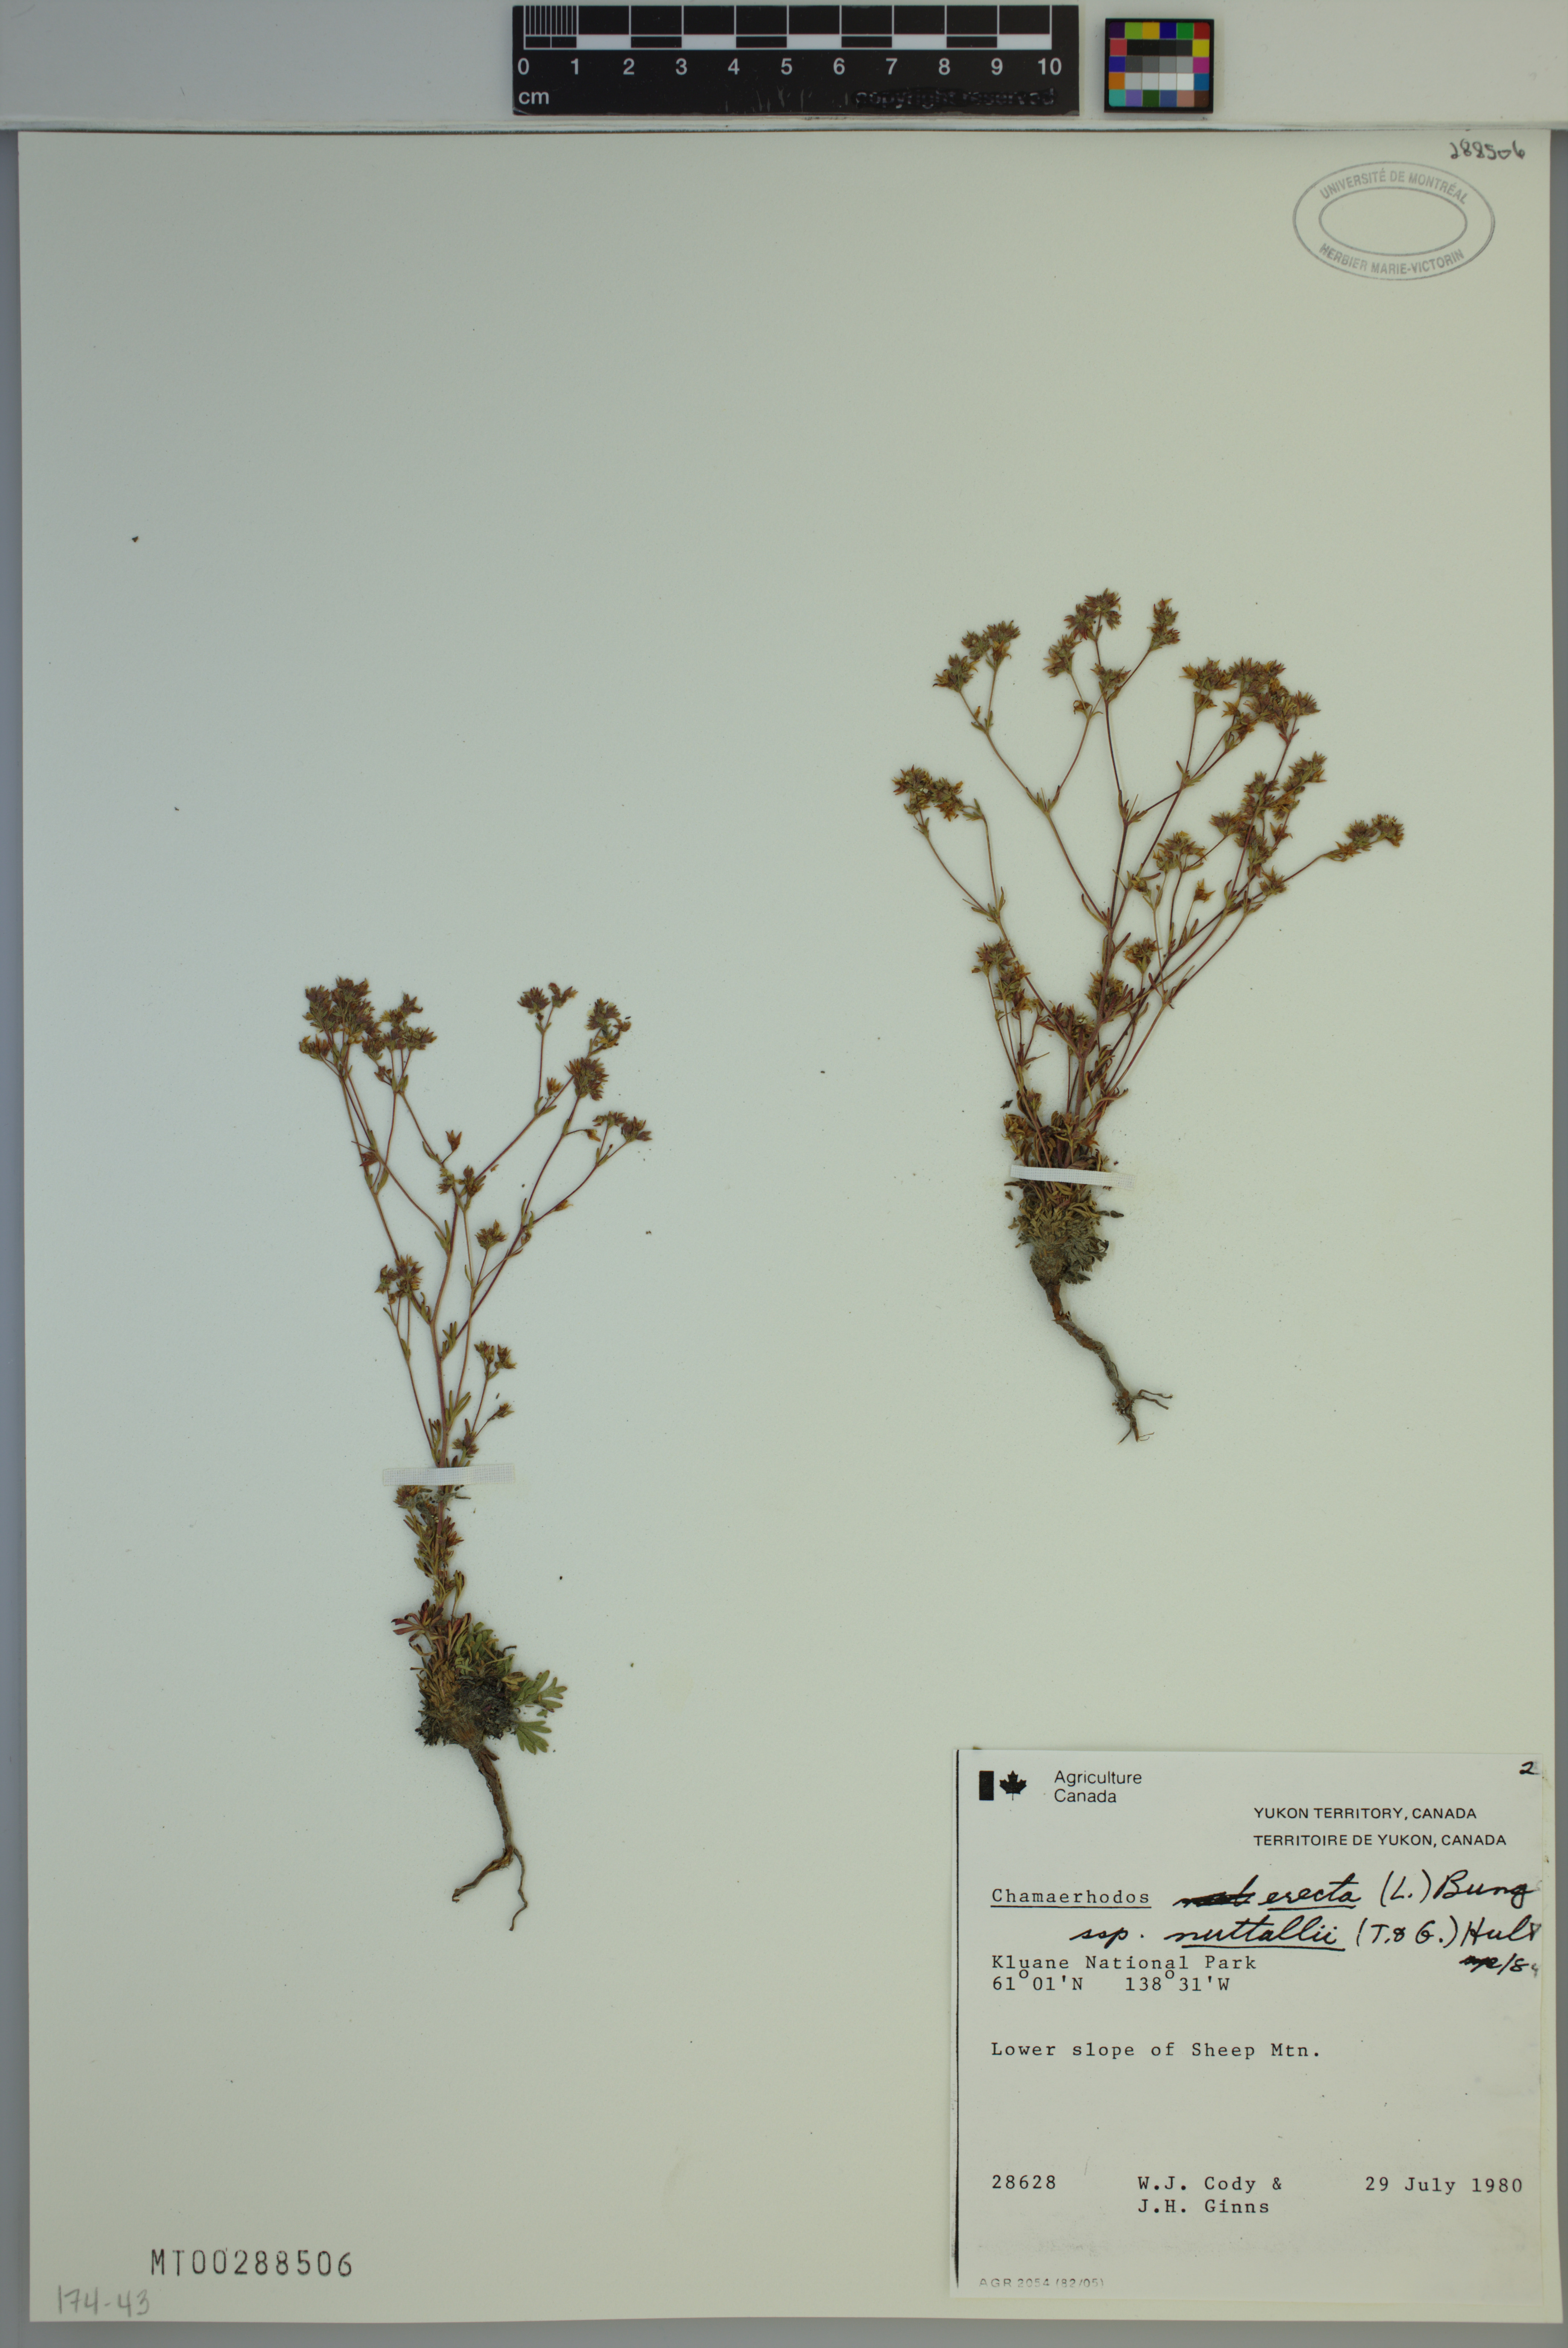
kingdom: Plantae
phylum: Tracheophyta
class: Magnoliopsida
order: Rosales
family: Rosaceae
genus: Chamaerhodos
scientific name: Chamaerhodos erecta
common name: American chamaerhodos
